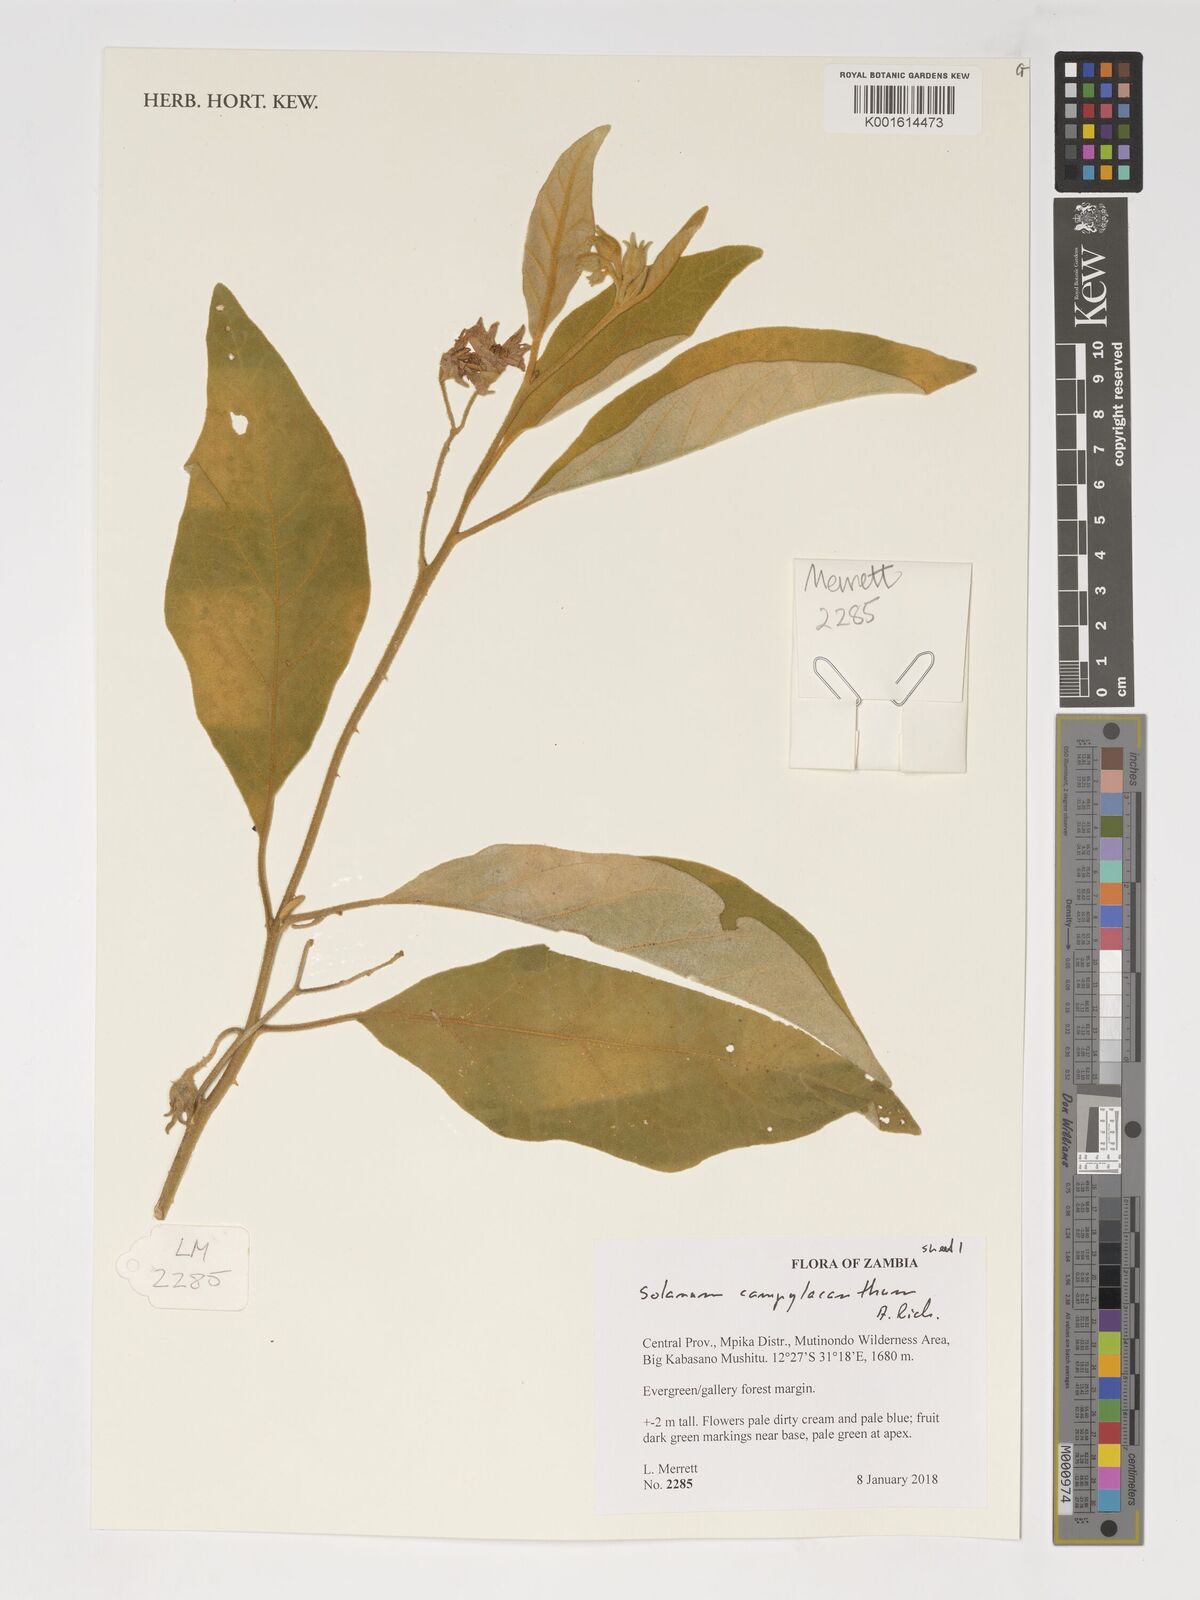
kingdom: Plantae
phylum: Tracheophyta
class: Magnoliopsida
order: Solanales
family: Solanaceae
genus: Solanum
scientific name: Solanum campylacanthum
